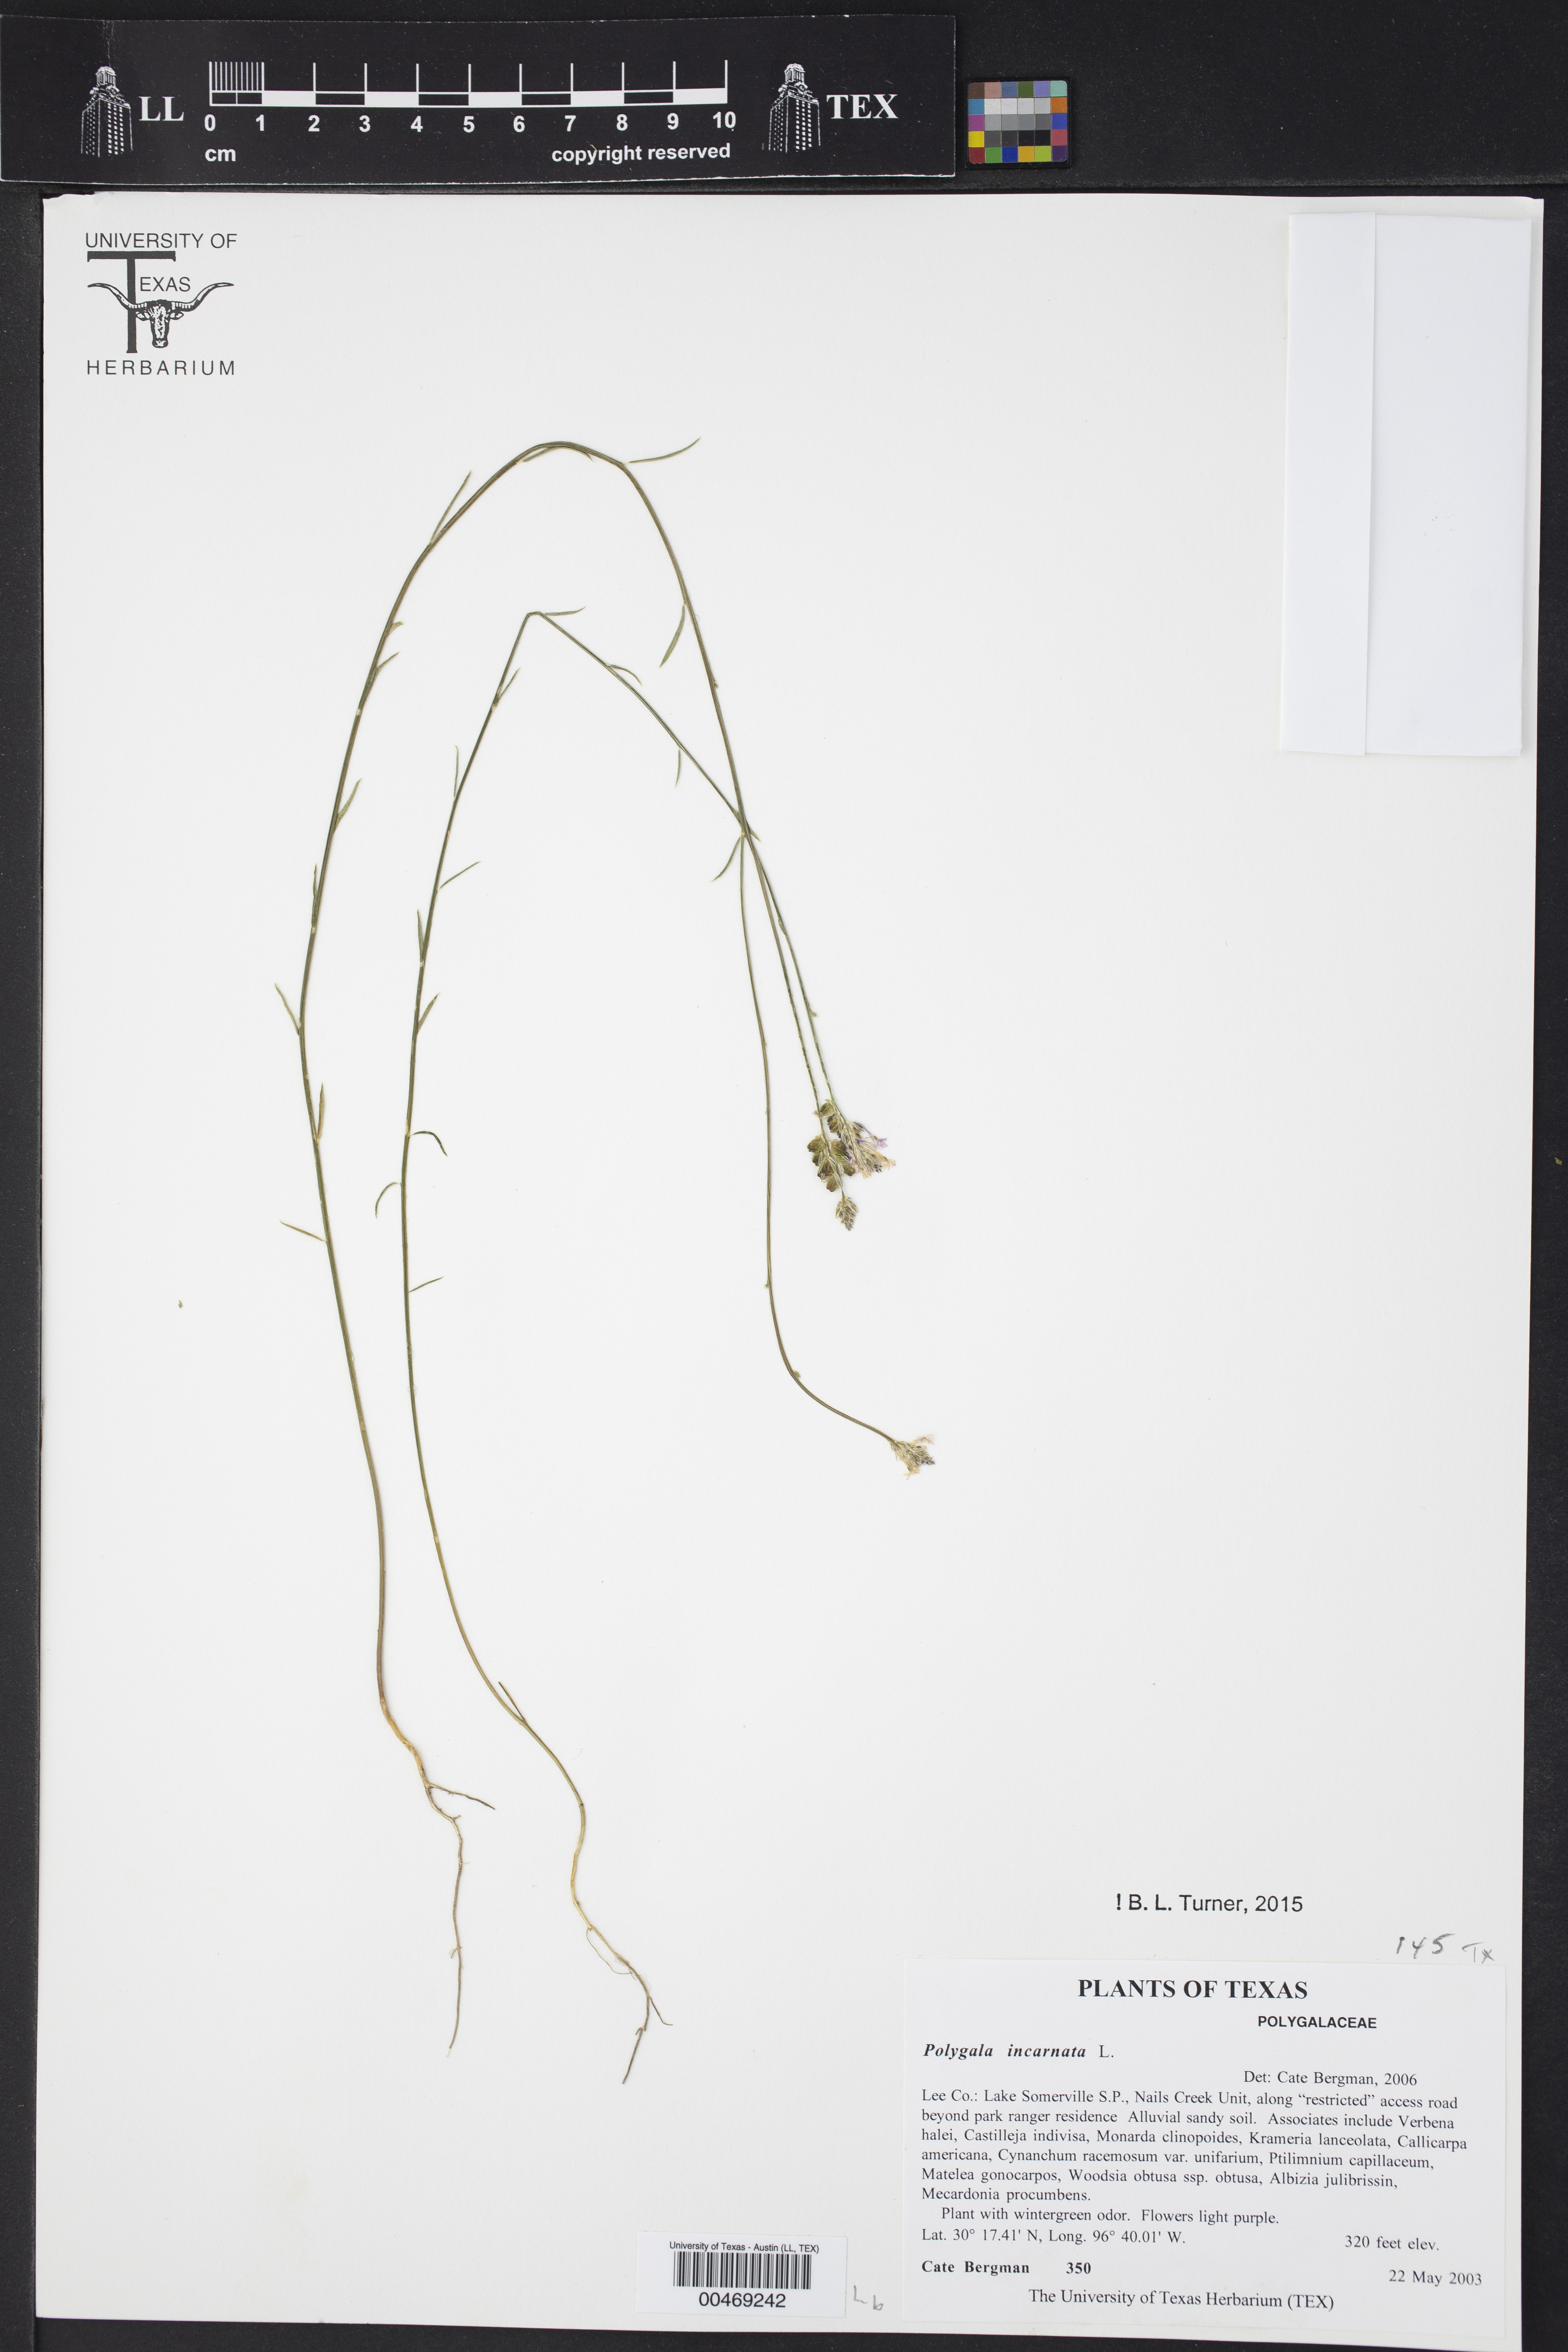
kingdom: Plantae
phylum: Tracheophyta
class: Magnoliopsida
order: Fabales
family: Polygalaceae
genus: Polygala
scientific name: Polygala incarnata
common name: Pink milkwort
